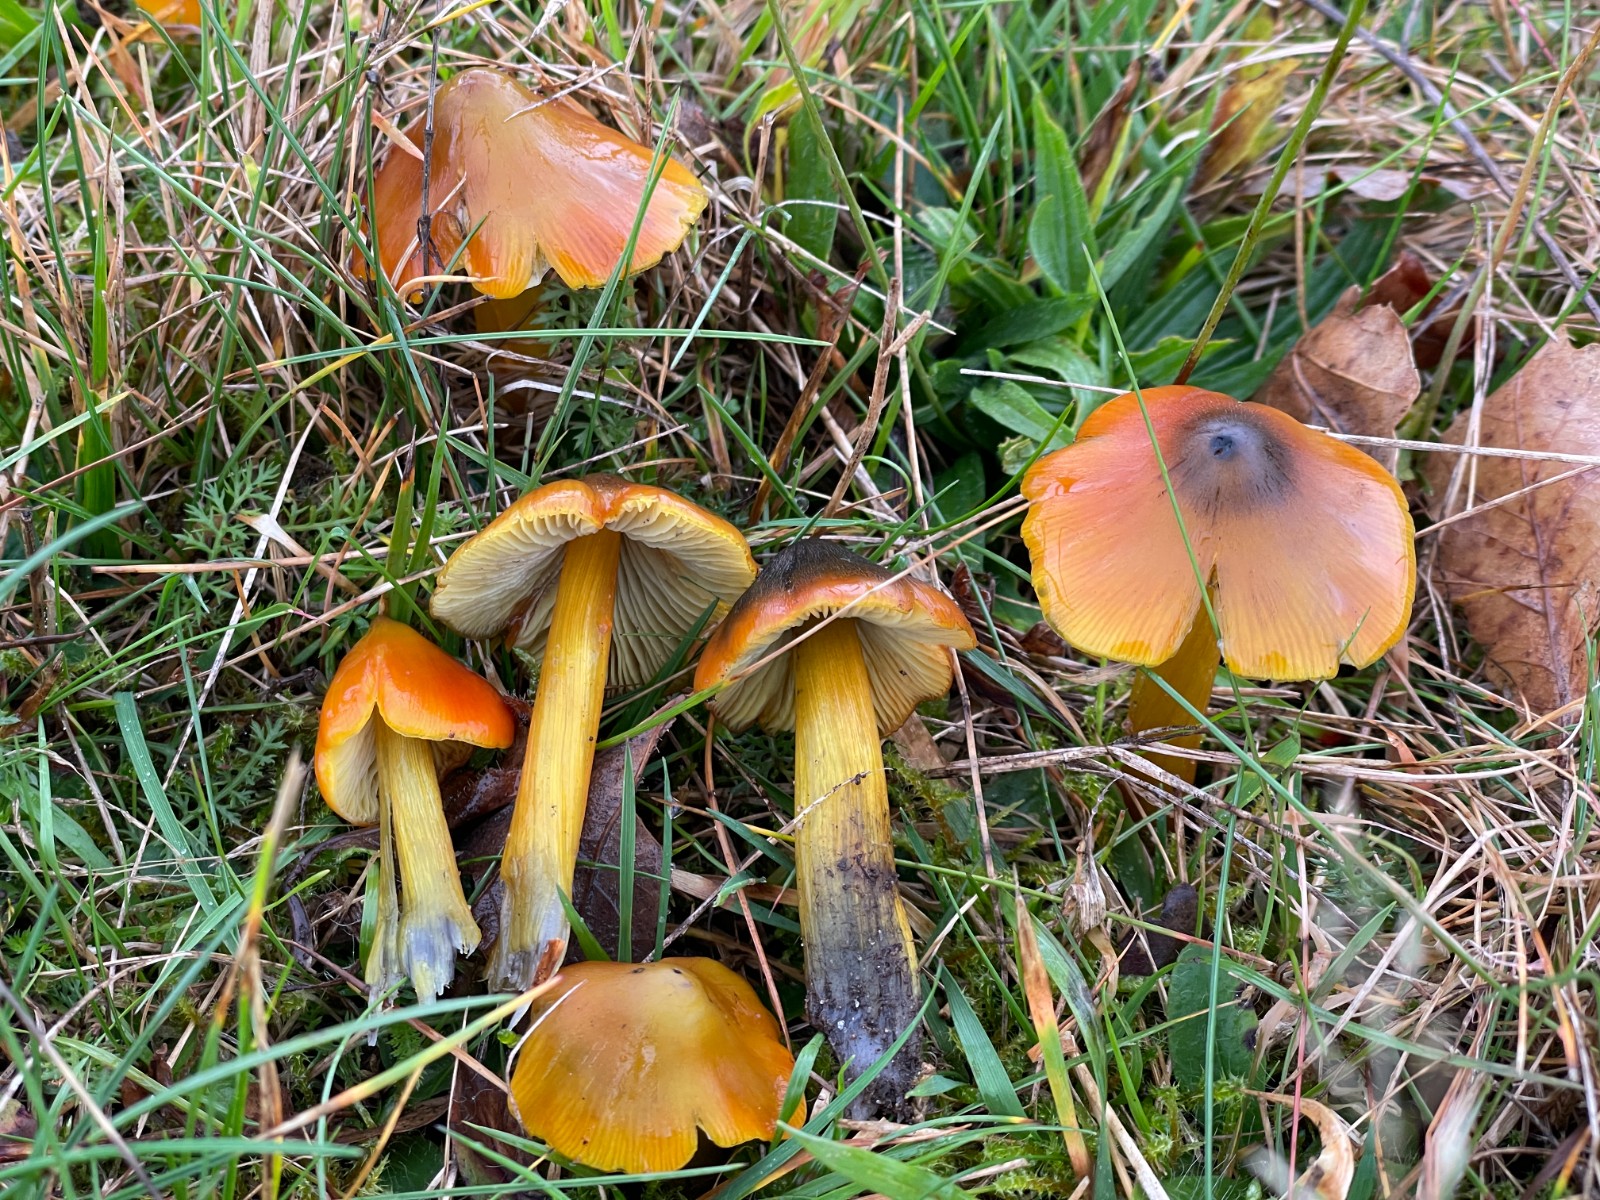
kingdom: Fungi
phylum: Basidiomycota
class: Agaricomycetes
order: Agaricales
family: Hygrophoraceae
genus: Hygrocybe
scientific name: Hygrocybe conica
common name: kegle-vokshat
